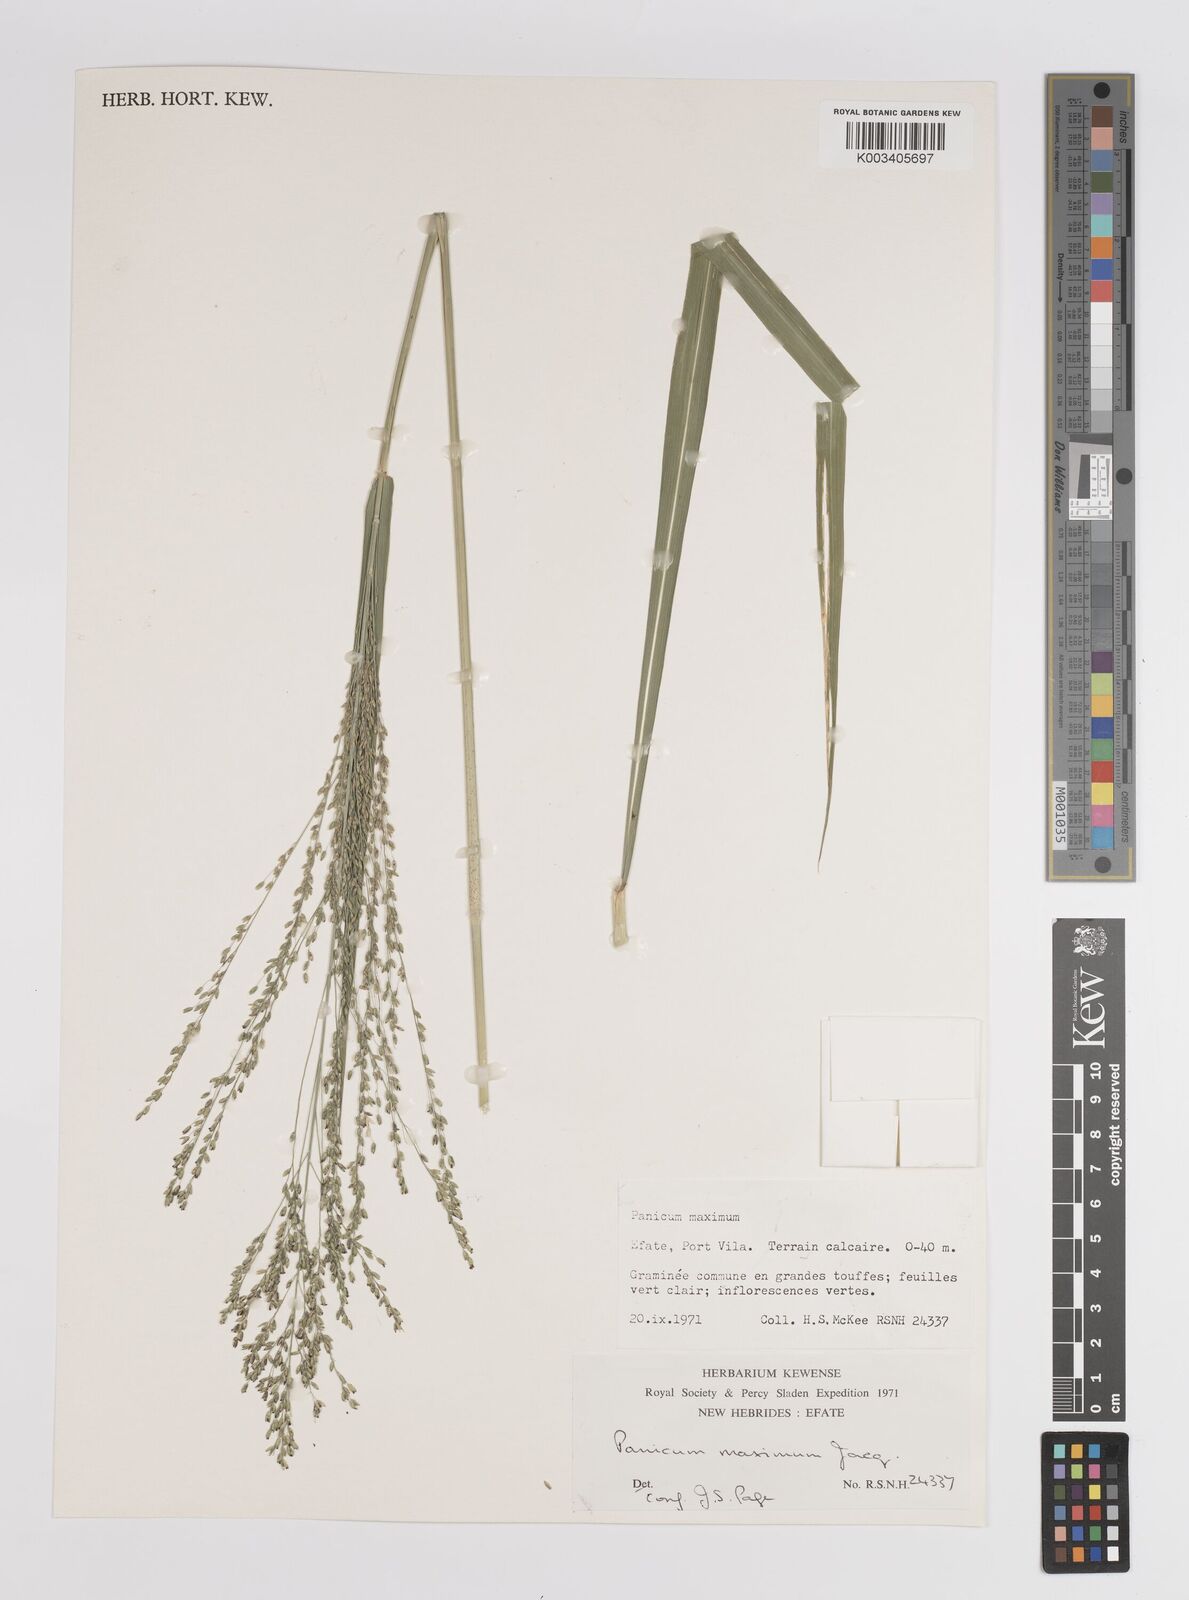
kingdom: Plantae
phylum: Tracheophyta
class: Liliopsida
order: Poales
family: Poaceae
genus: Megathyrsus
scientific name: Megathyrsus maximus
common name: Guineagrass
